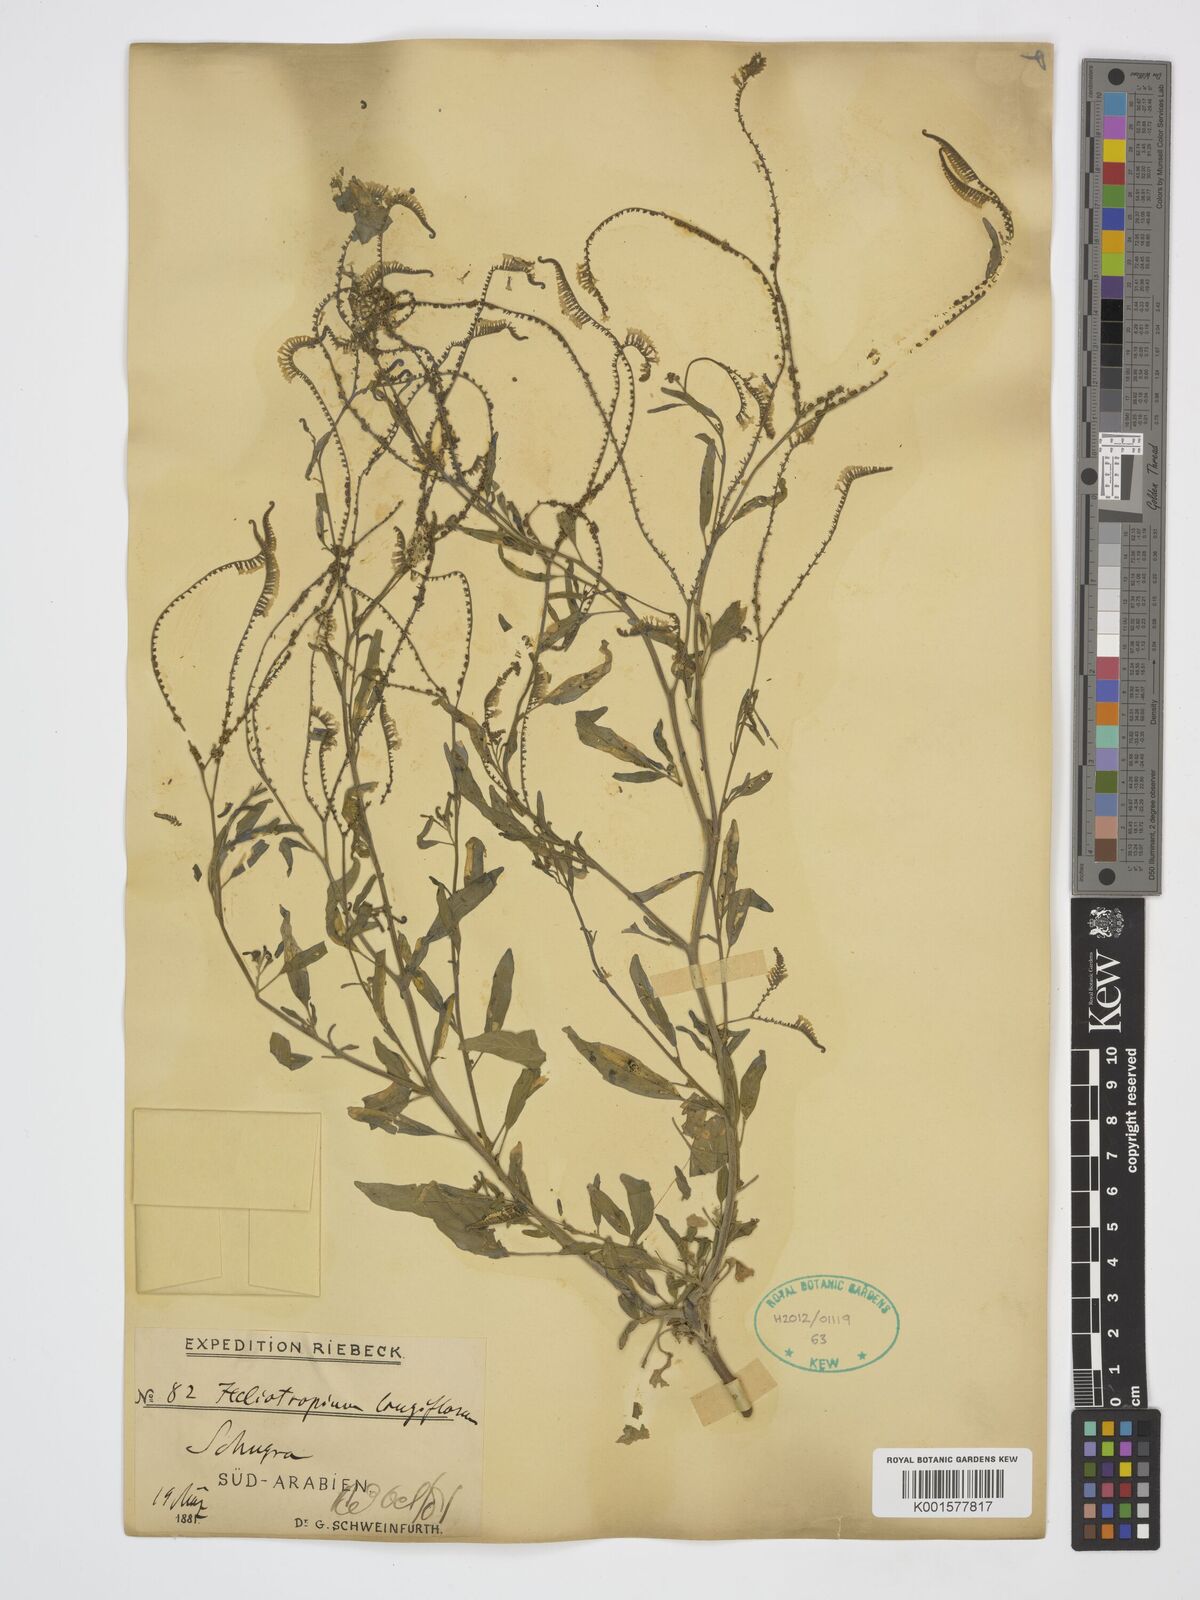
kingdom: Plantae
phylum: Tracheophyta
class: Magnoliopsida
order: Boraginales
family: Heliotropiaceae
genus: Heliotropium
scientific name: Heliotropium longiflorum
